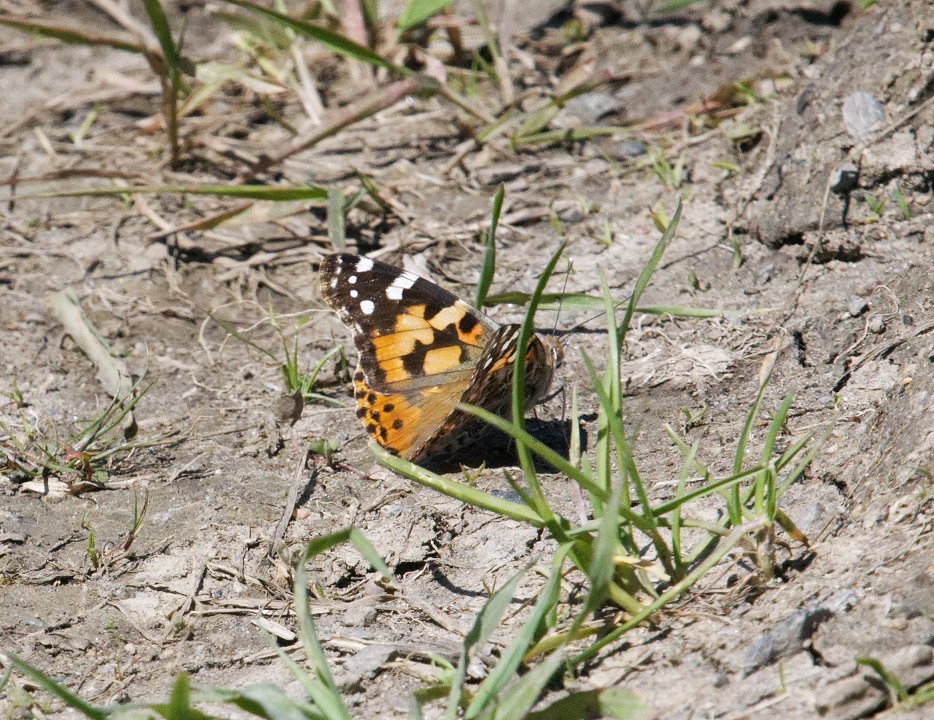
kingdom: Animalia
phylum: Arthropoda
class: Insecta
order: Lepidoptera
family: Nymphalidae
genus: Vanessa
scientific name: Vanessa cardui
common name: Painted Lady
